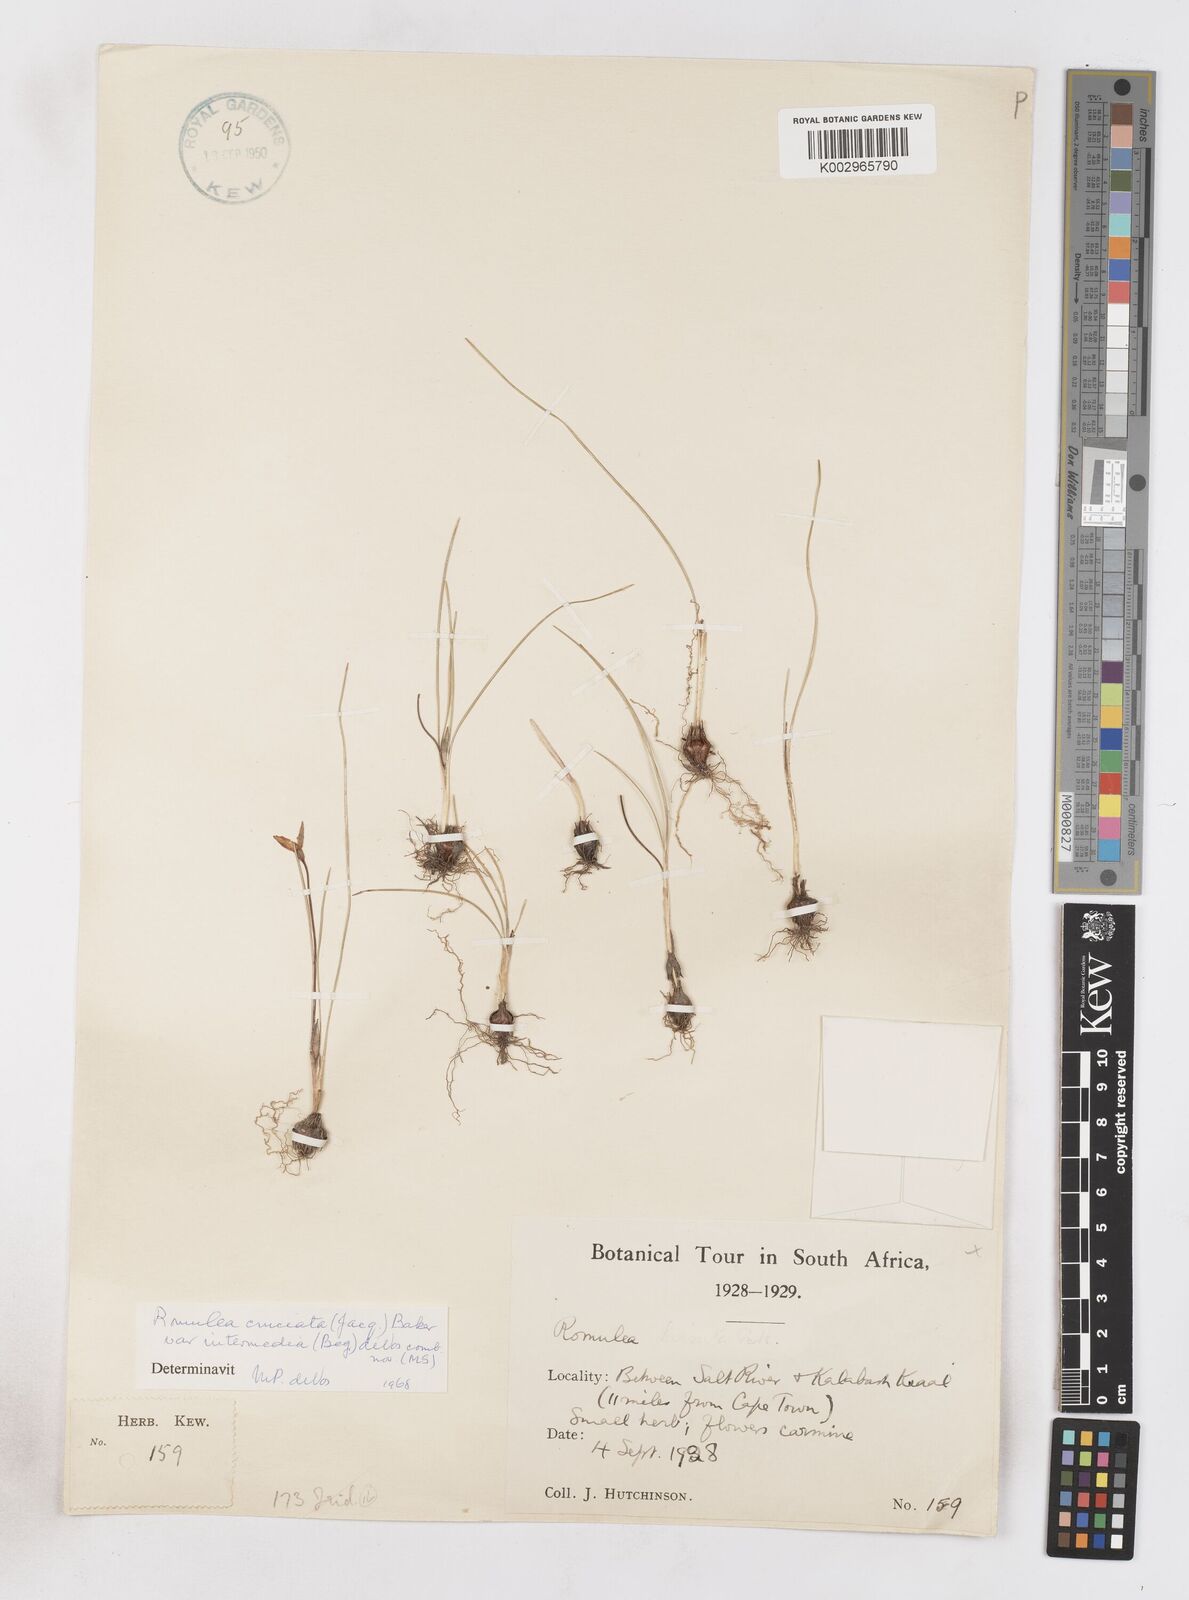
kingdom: Plantae
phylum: Tracheophyta
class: Liliopsida
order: Asparagales
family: Iridaceae
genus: Romulea
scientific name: Romulea cruciata
